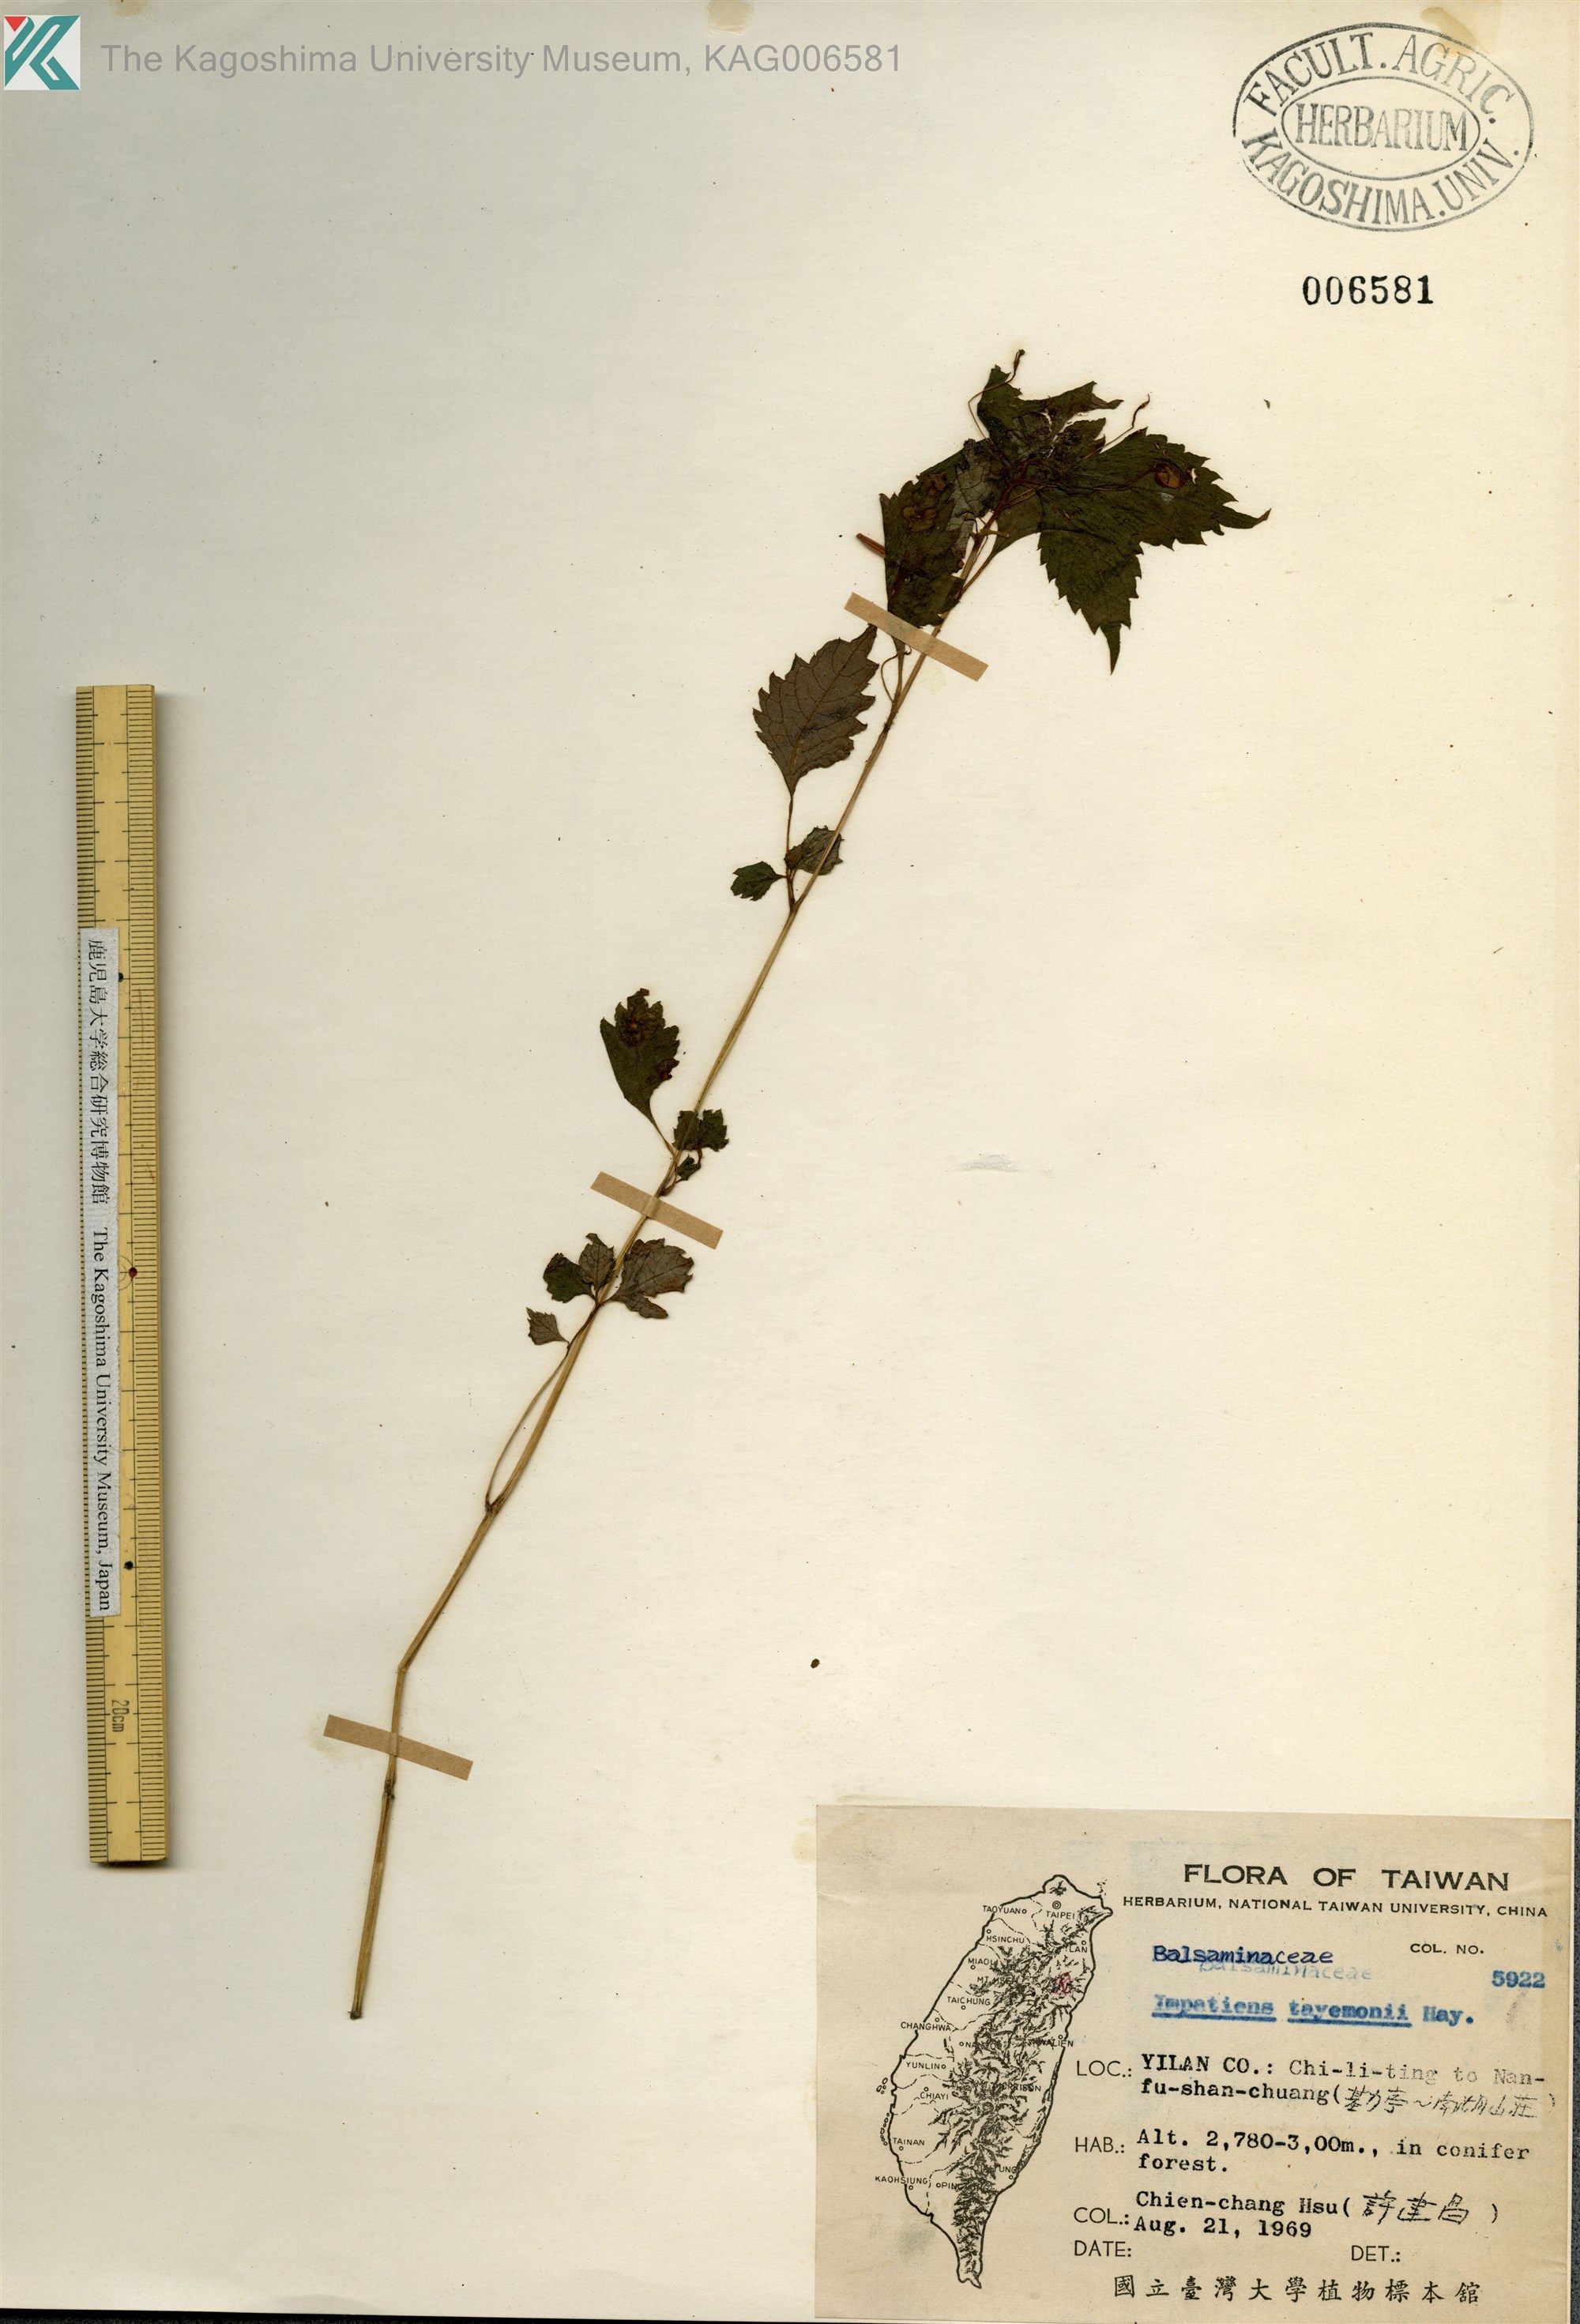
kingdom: Plantae
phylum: Tracheophyta
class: Magnoliopsida
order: Ericales
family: Balsaminaceae
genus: Impatiens
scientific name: Impatiens tayemonii
